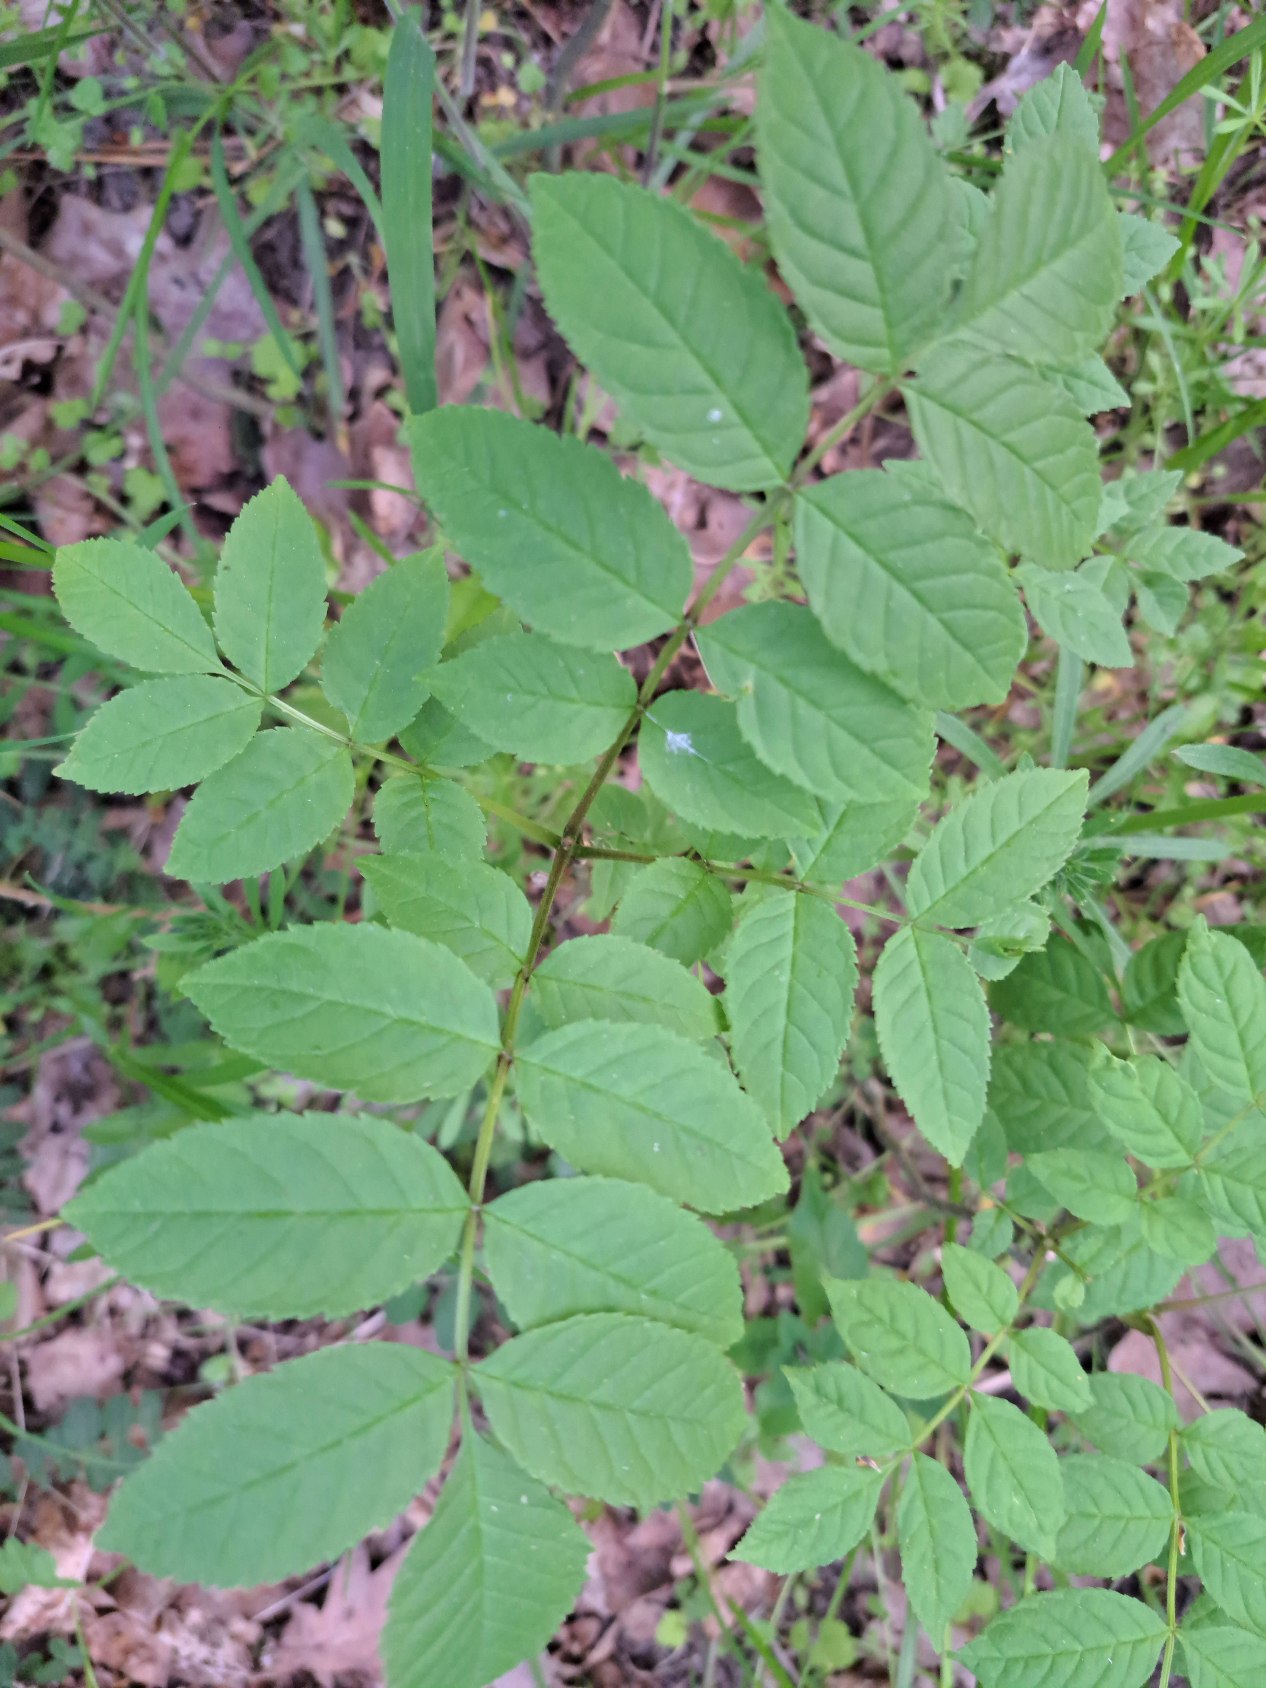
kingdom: Plantae
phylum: Tracheophyta
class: Magnoliopsida
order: Lamiales
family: Oleaceae
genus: Fraxinus
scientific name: Fraxinus excelsior
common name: Ask
